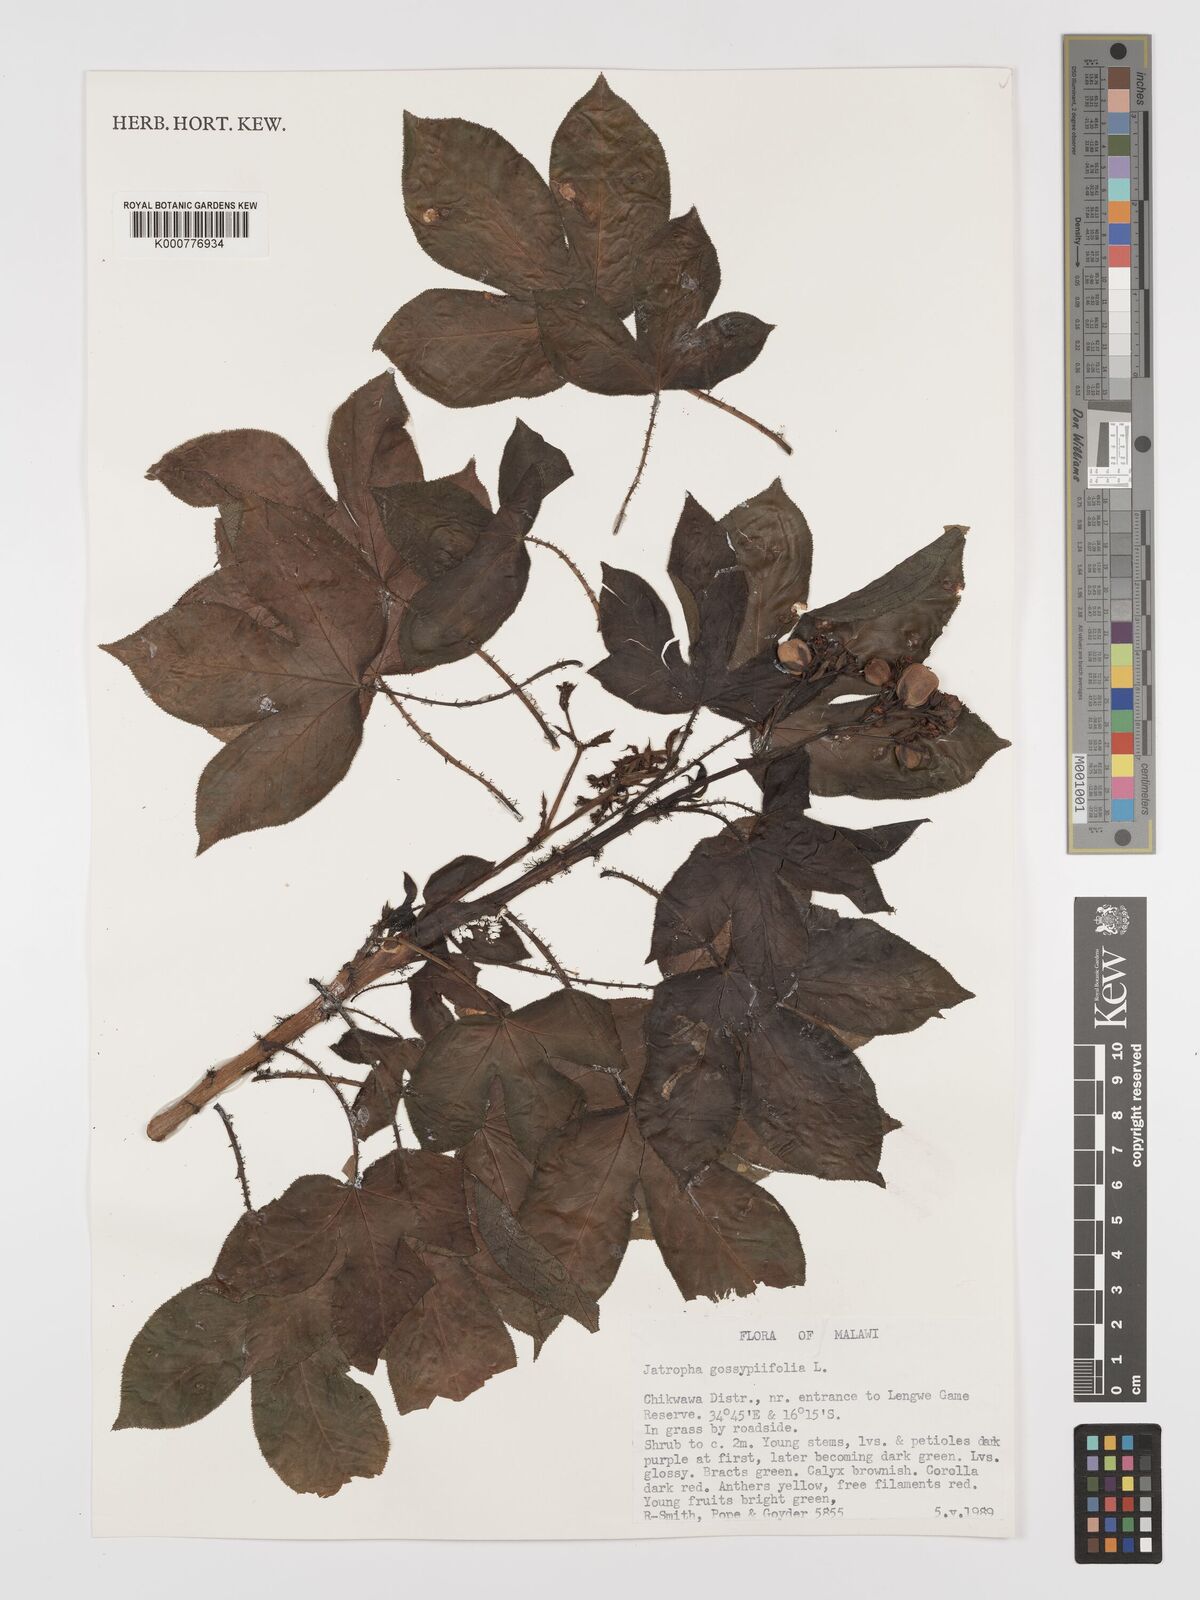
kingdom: Plantae
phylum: Tracheophyta
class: Magnoliopsida
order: Malpighiales
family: Euphorbiaceae
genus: Jatropha
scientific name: Jatropha gossypiifolia
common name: Bellyache bush
